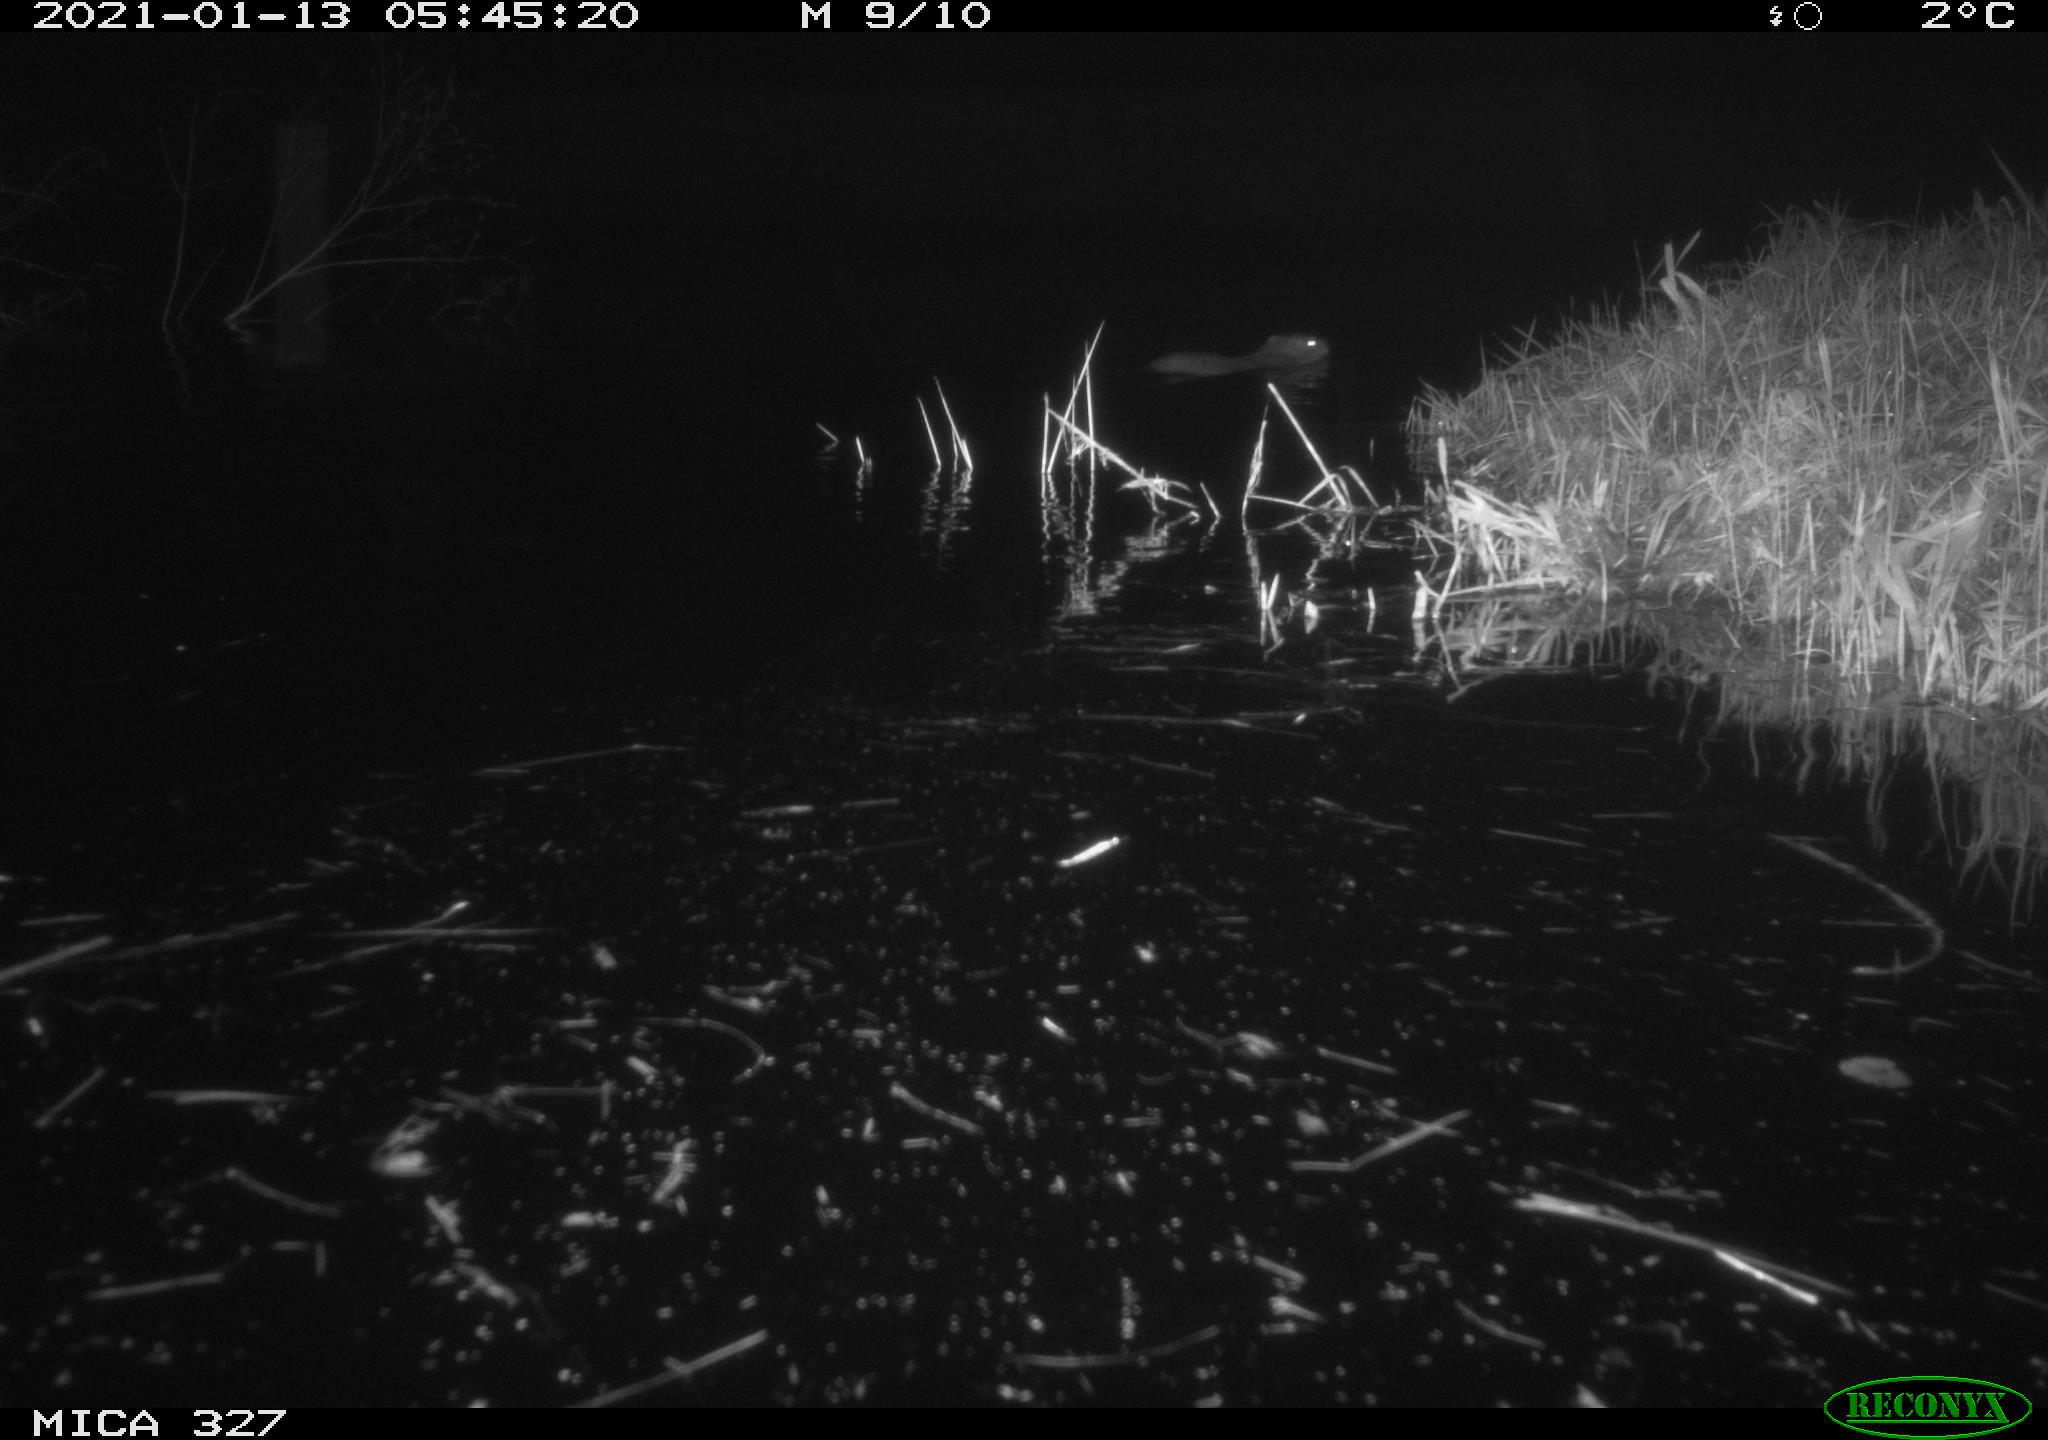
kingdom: Animalia
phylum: Chordata
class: Mammalia
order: Rodentia
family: Myocastoridae
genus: Myocastor
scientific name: Myocastor coypus
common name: Coypu
